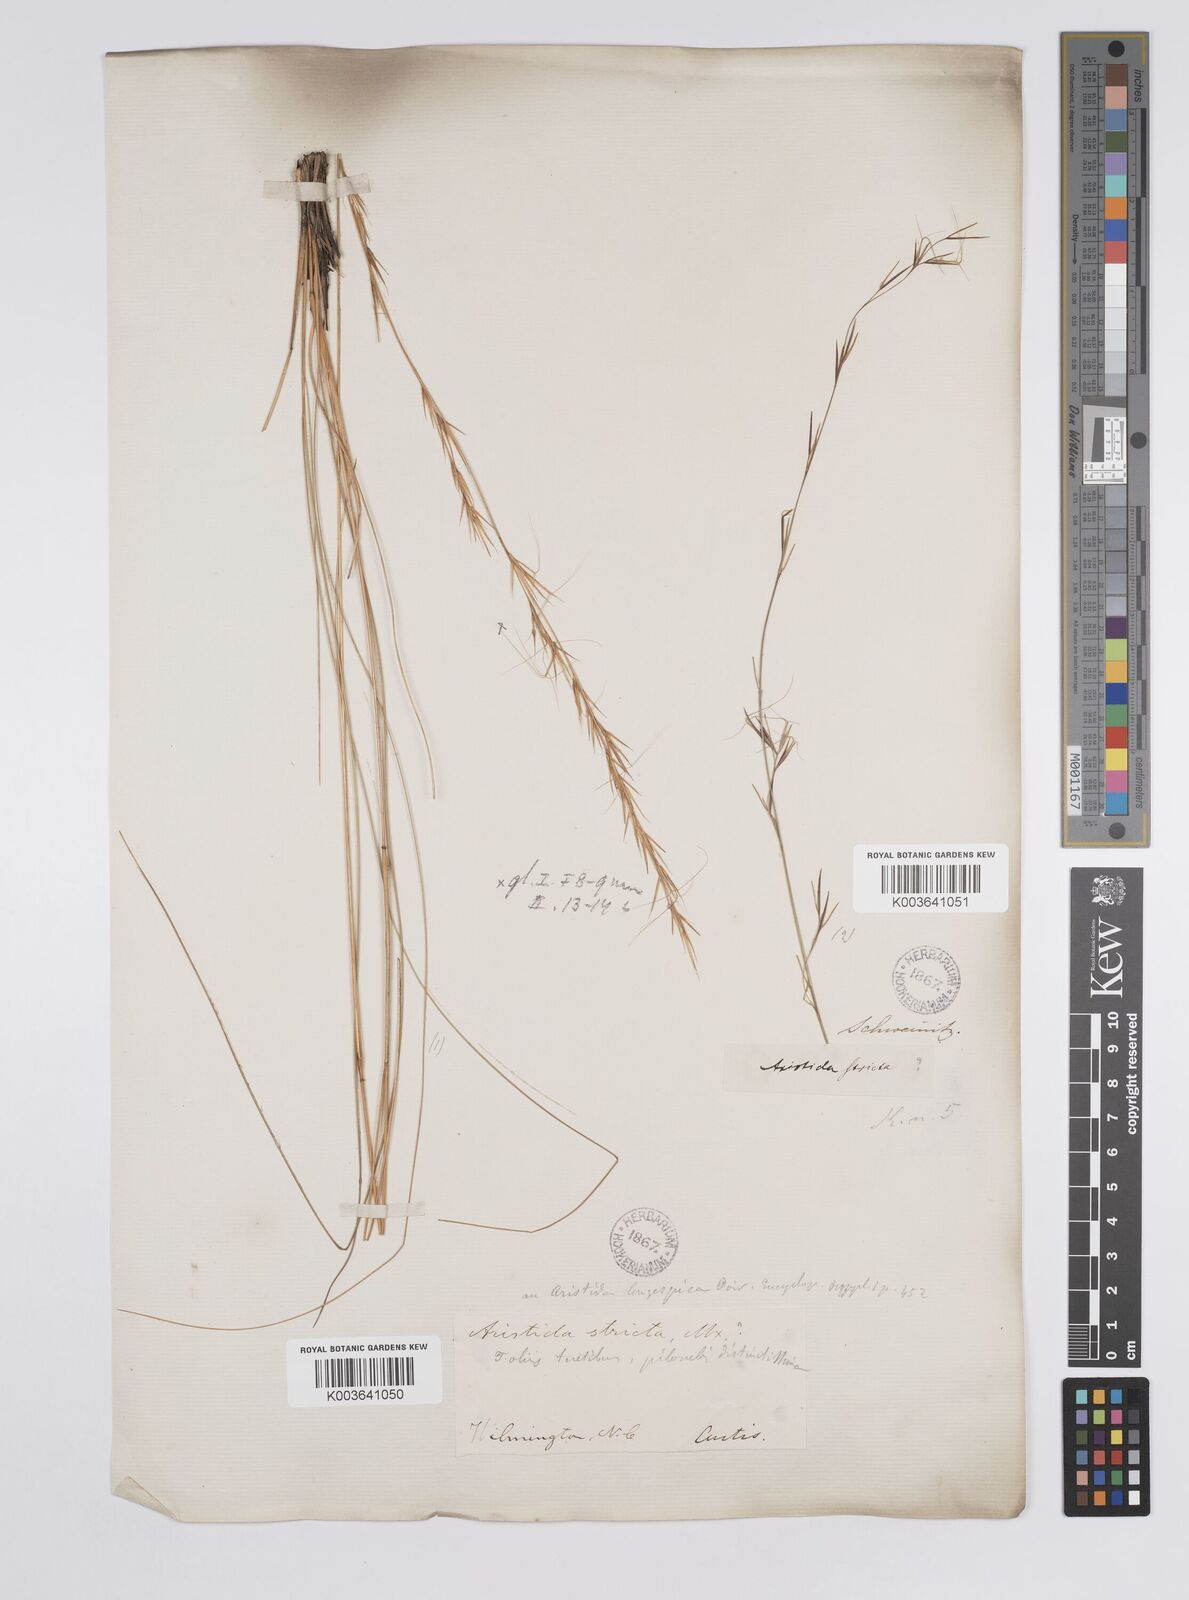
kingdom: Plantae
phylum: Tracheophyta
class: Liliopsida
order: Poales
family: Poaceae
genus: Aristida
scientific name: Aristida stricta
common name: Pineland three-awn
